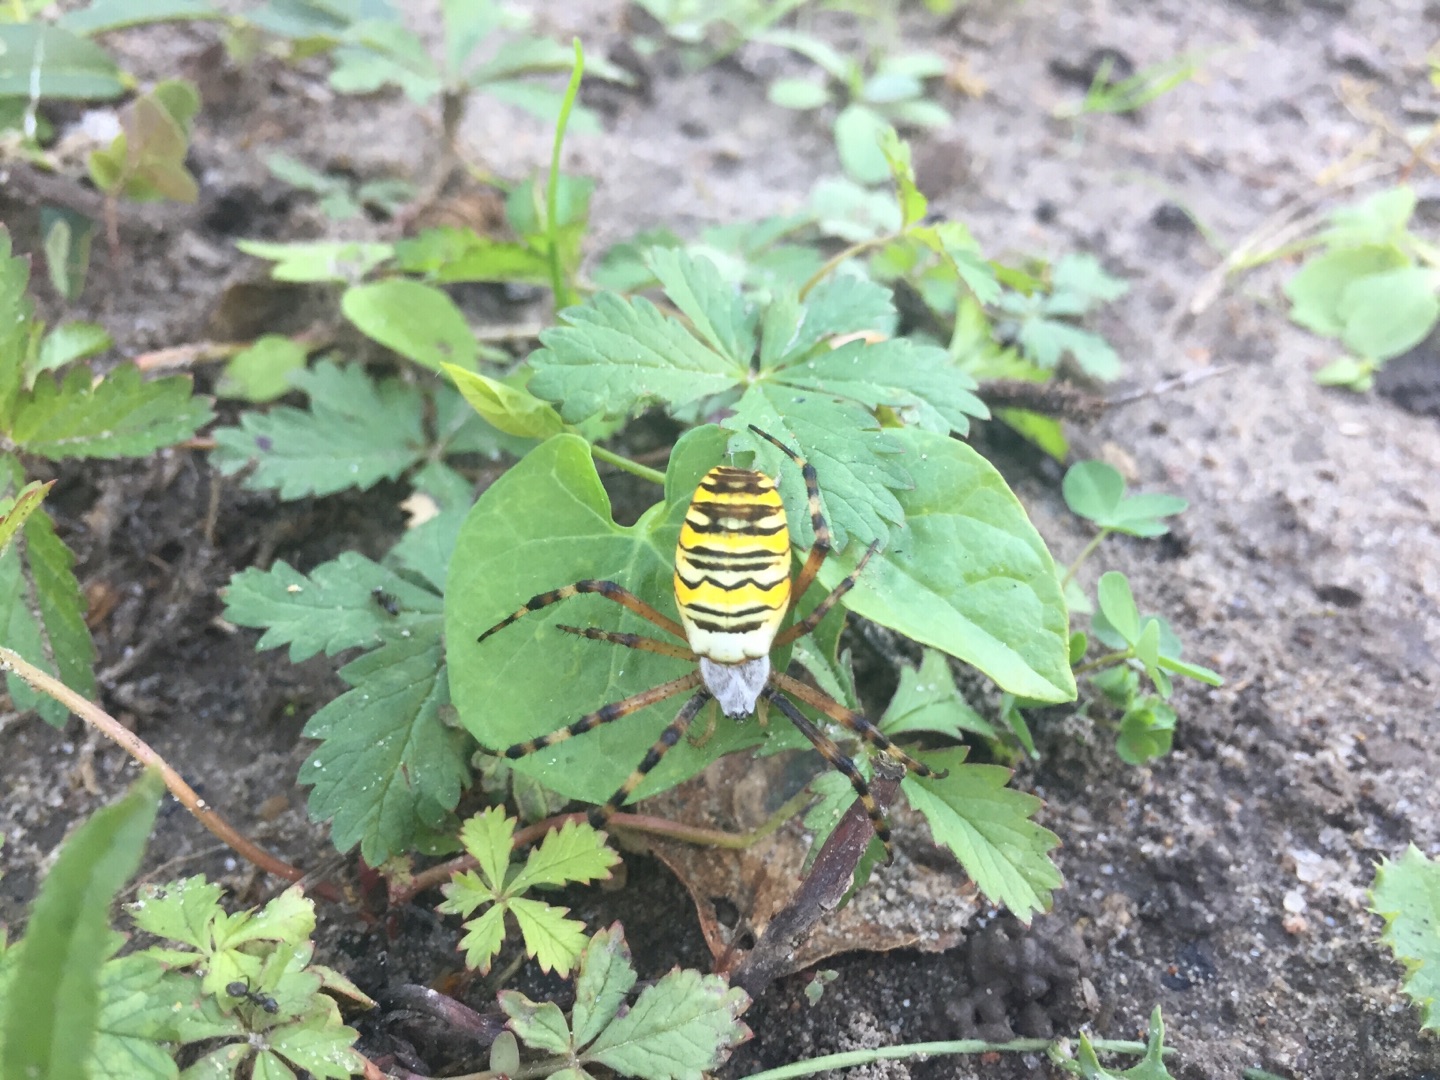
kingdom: Animalia
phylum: Arthropoda
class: Arachnida
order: Araneae
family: Araneidae
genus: Argiope
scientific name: Argiope bruennichi
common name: Hvepseedderkop
